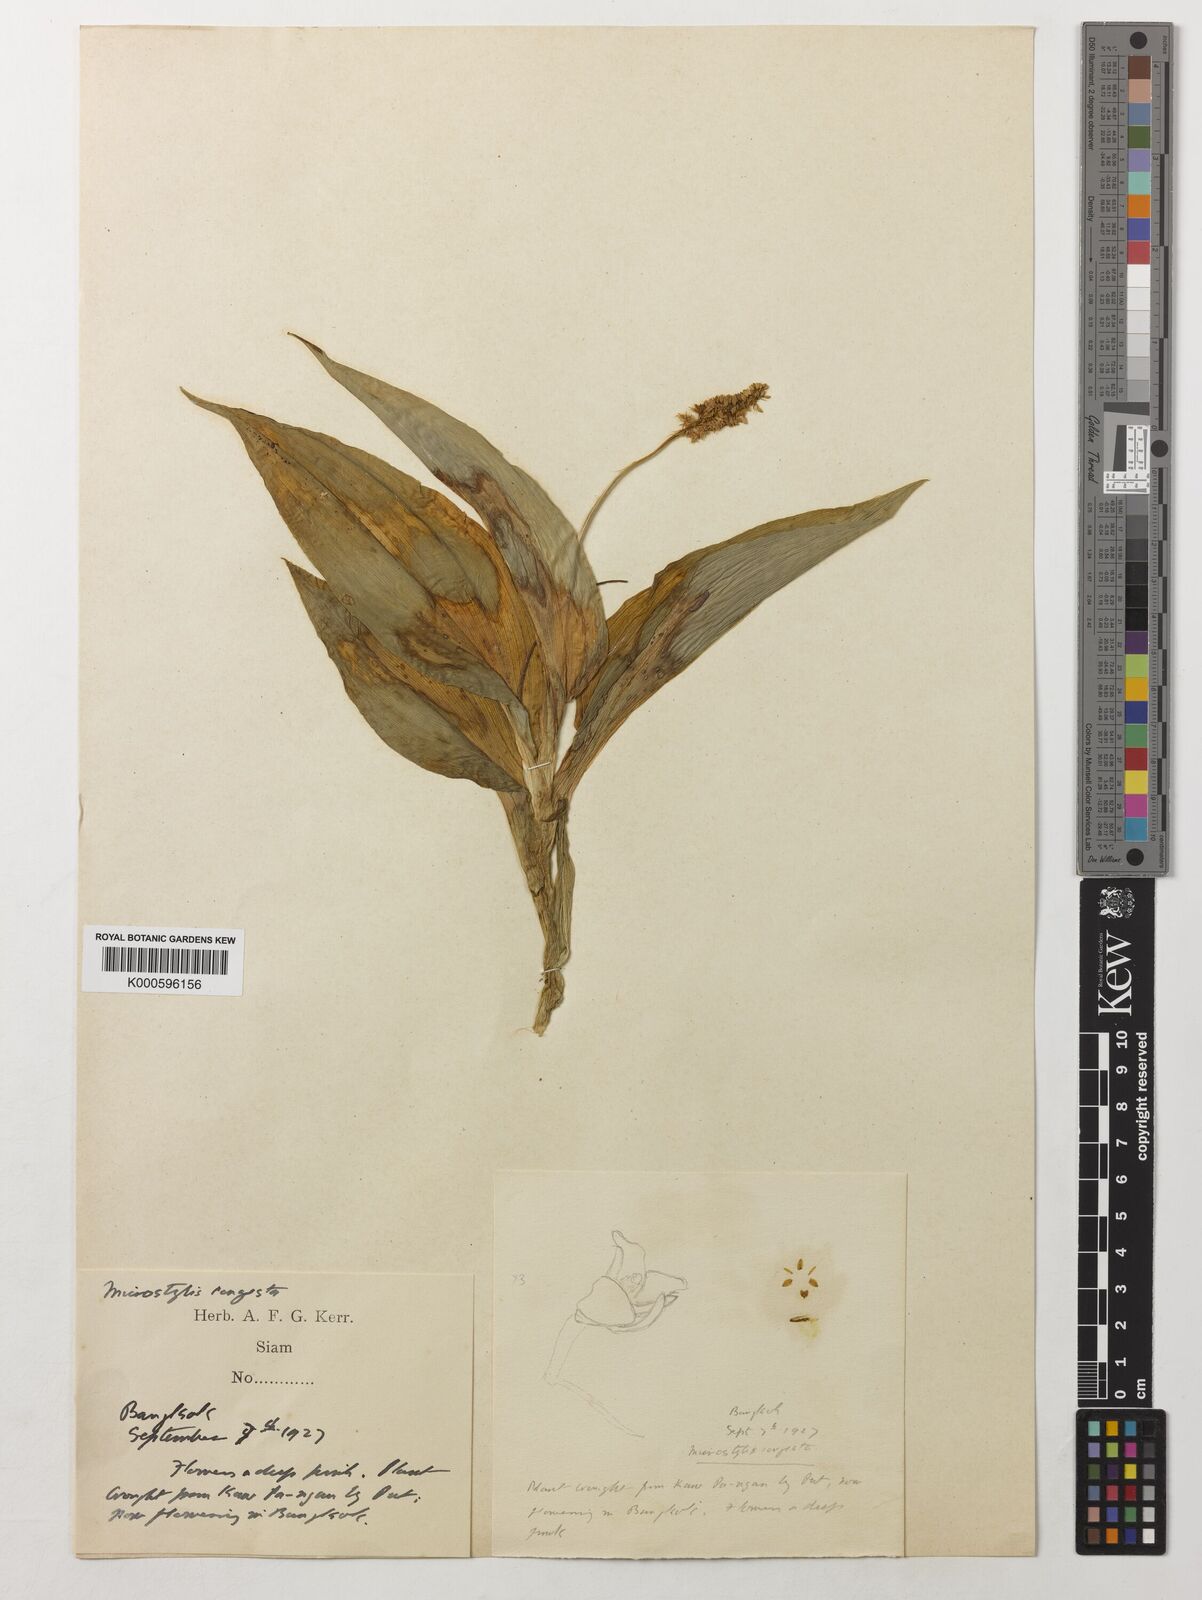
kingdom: Plantae
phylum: Tracheophyta
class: Liliopsida
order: Asparagales
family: Orchidaceae
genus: Dienia
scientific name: Dienia ophrydis
